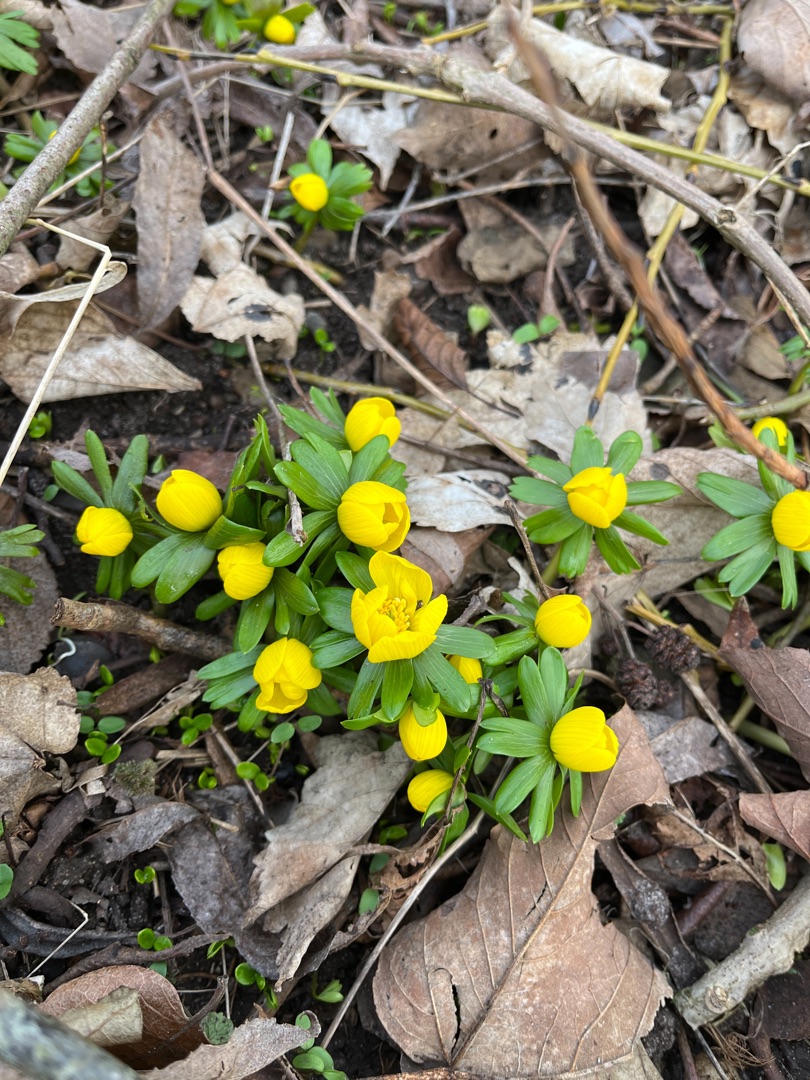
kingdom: Plantae
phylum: Tracheophyta
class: Magnoliopsida
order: Ranunculales
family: Ranunculaceae
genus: Eranthis
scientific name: Eranthis hyemalis
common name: Erantis
